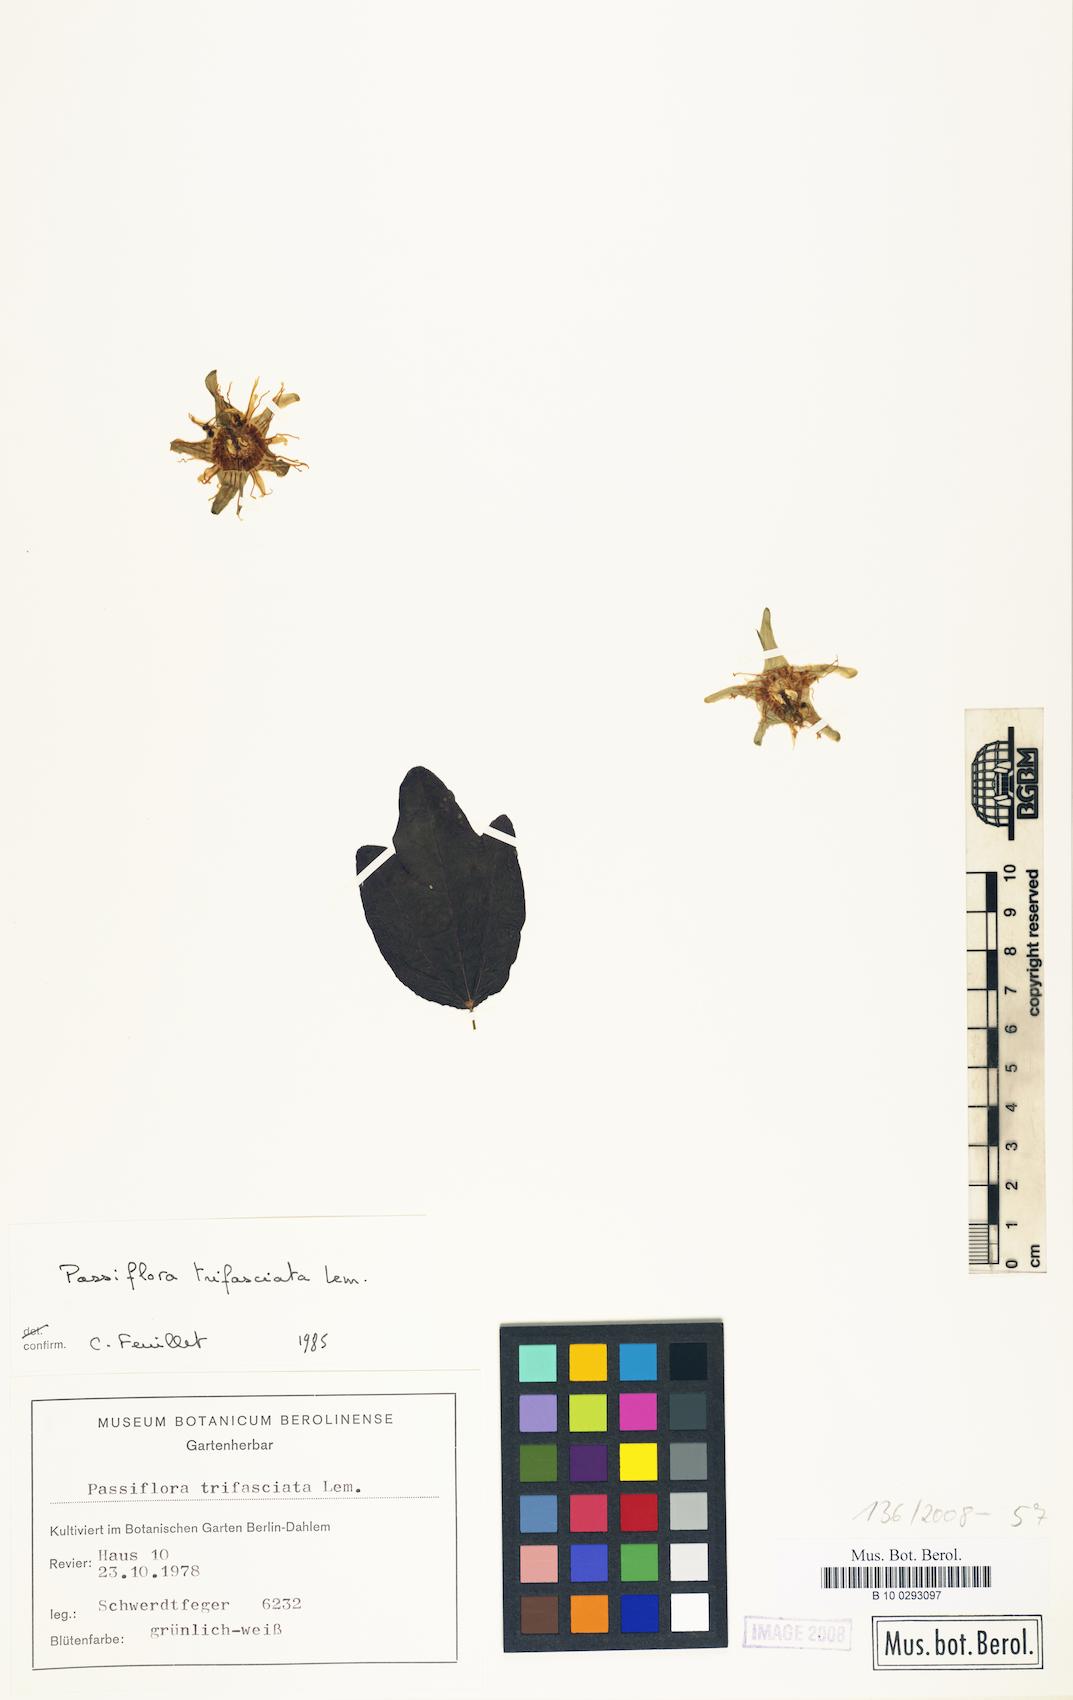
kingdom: Plantae
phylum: Tracheophyta
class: Magnoliopsida
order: Malpighiales
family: Passifloraceae
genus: Passiflora
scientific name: Passiflora trifasciata
